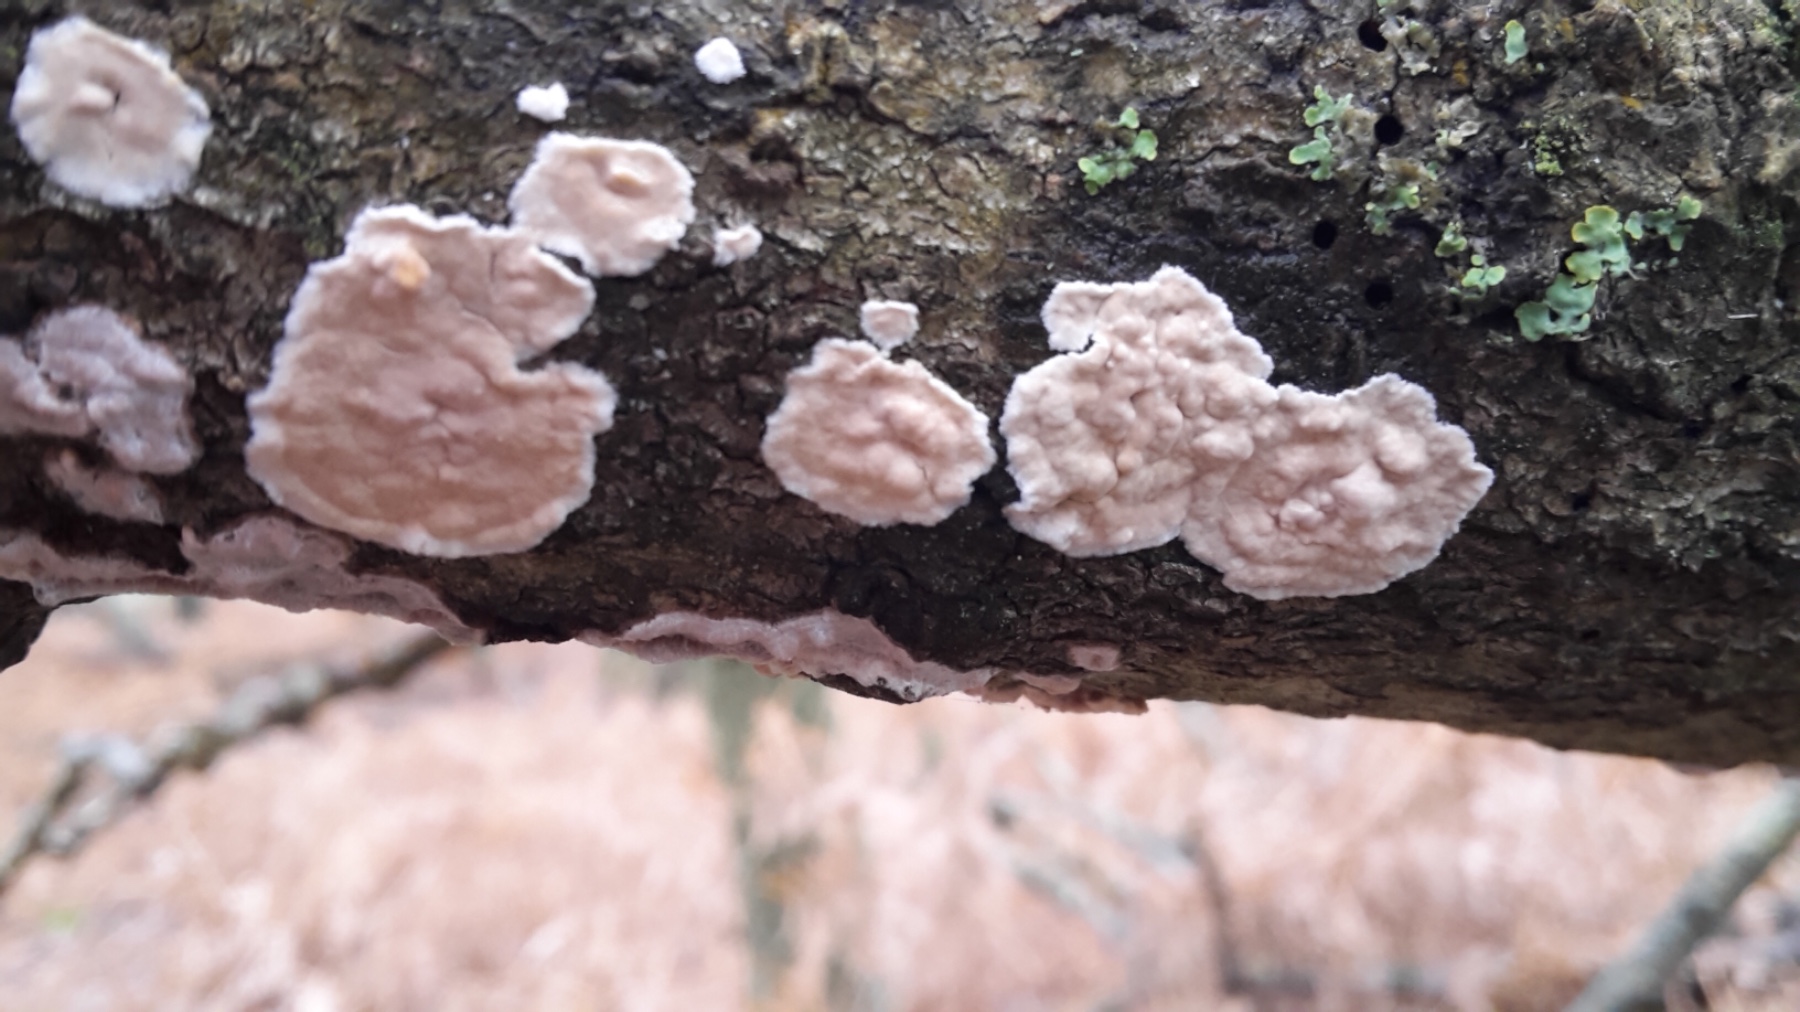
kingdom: Fungi
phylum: Basidiomycota
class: Agaricomycetes
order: Russulales
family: Peniophoraceae
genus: Peniophora
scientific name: Peniophora polygonia
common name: polygon-voksskind
